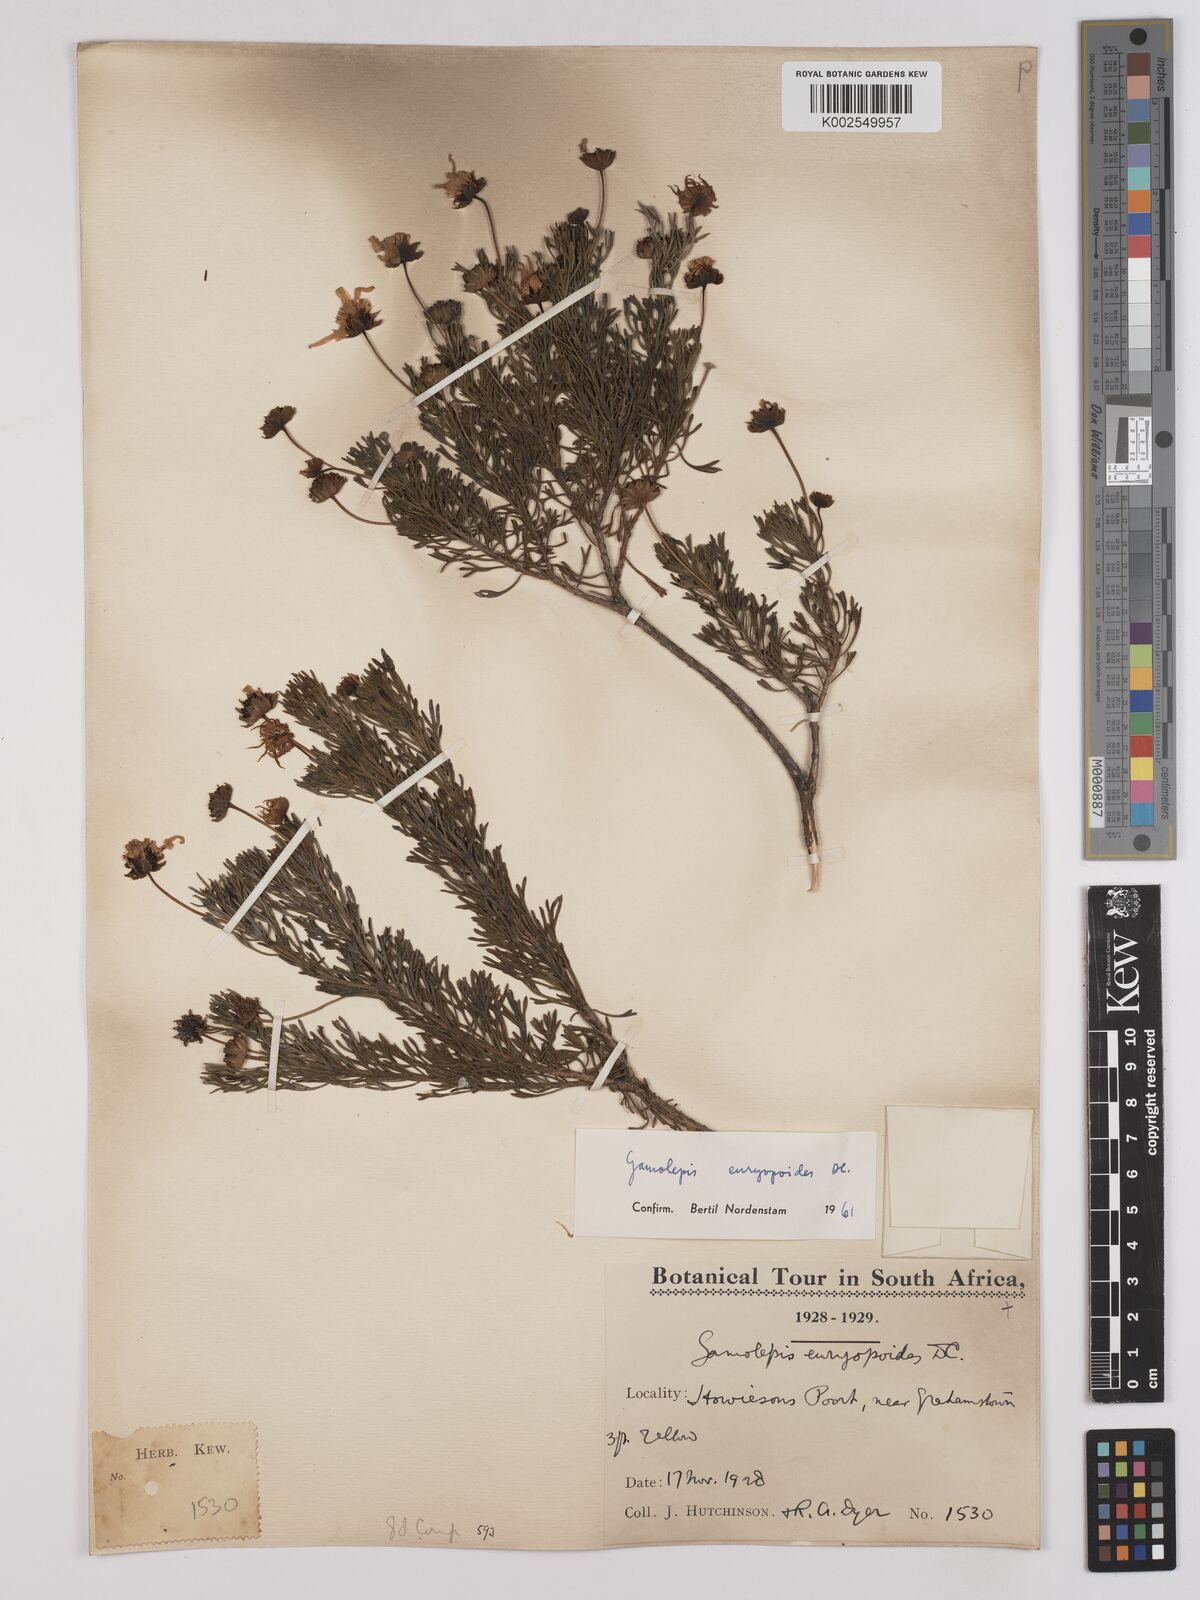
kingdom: Plantae
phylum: Tracheophyta
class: Magnoliopsida
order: Asterales
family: Asteraceae
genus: Euryops
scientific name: Euryops euryopoides
